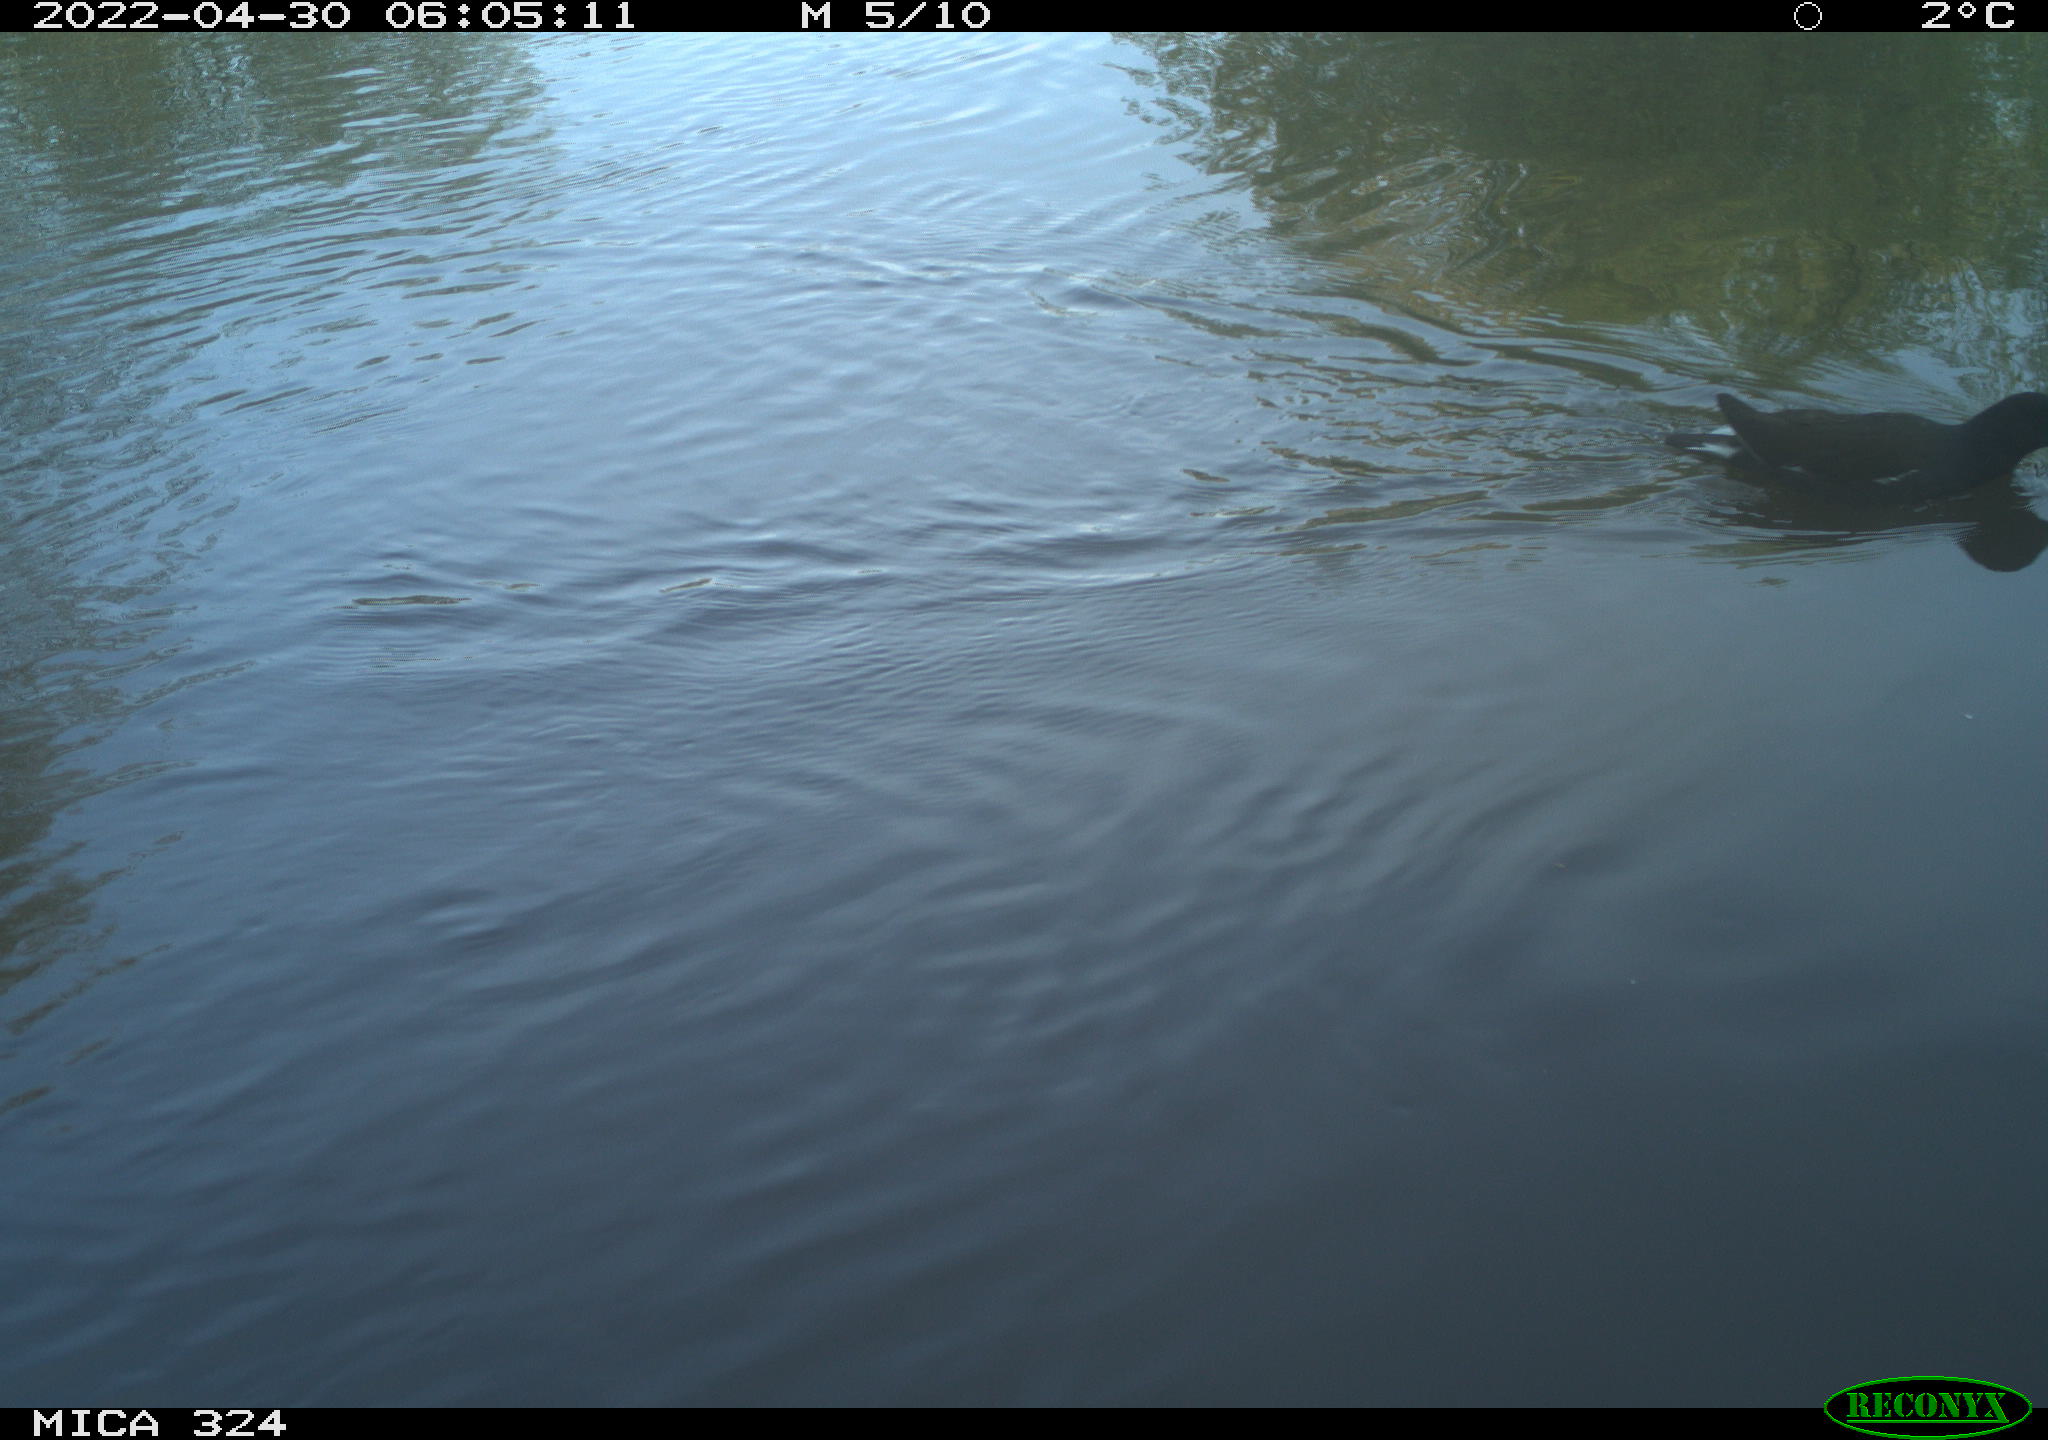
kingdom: Animalia
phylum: Chordata
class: Aves
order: Gruiformes
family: Rallidae
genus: Gallinula
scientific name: Gallinula chloropus
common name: Common moorhen
